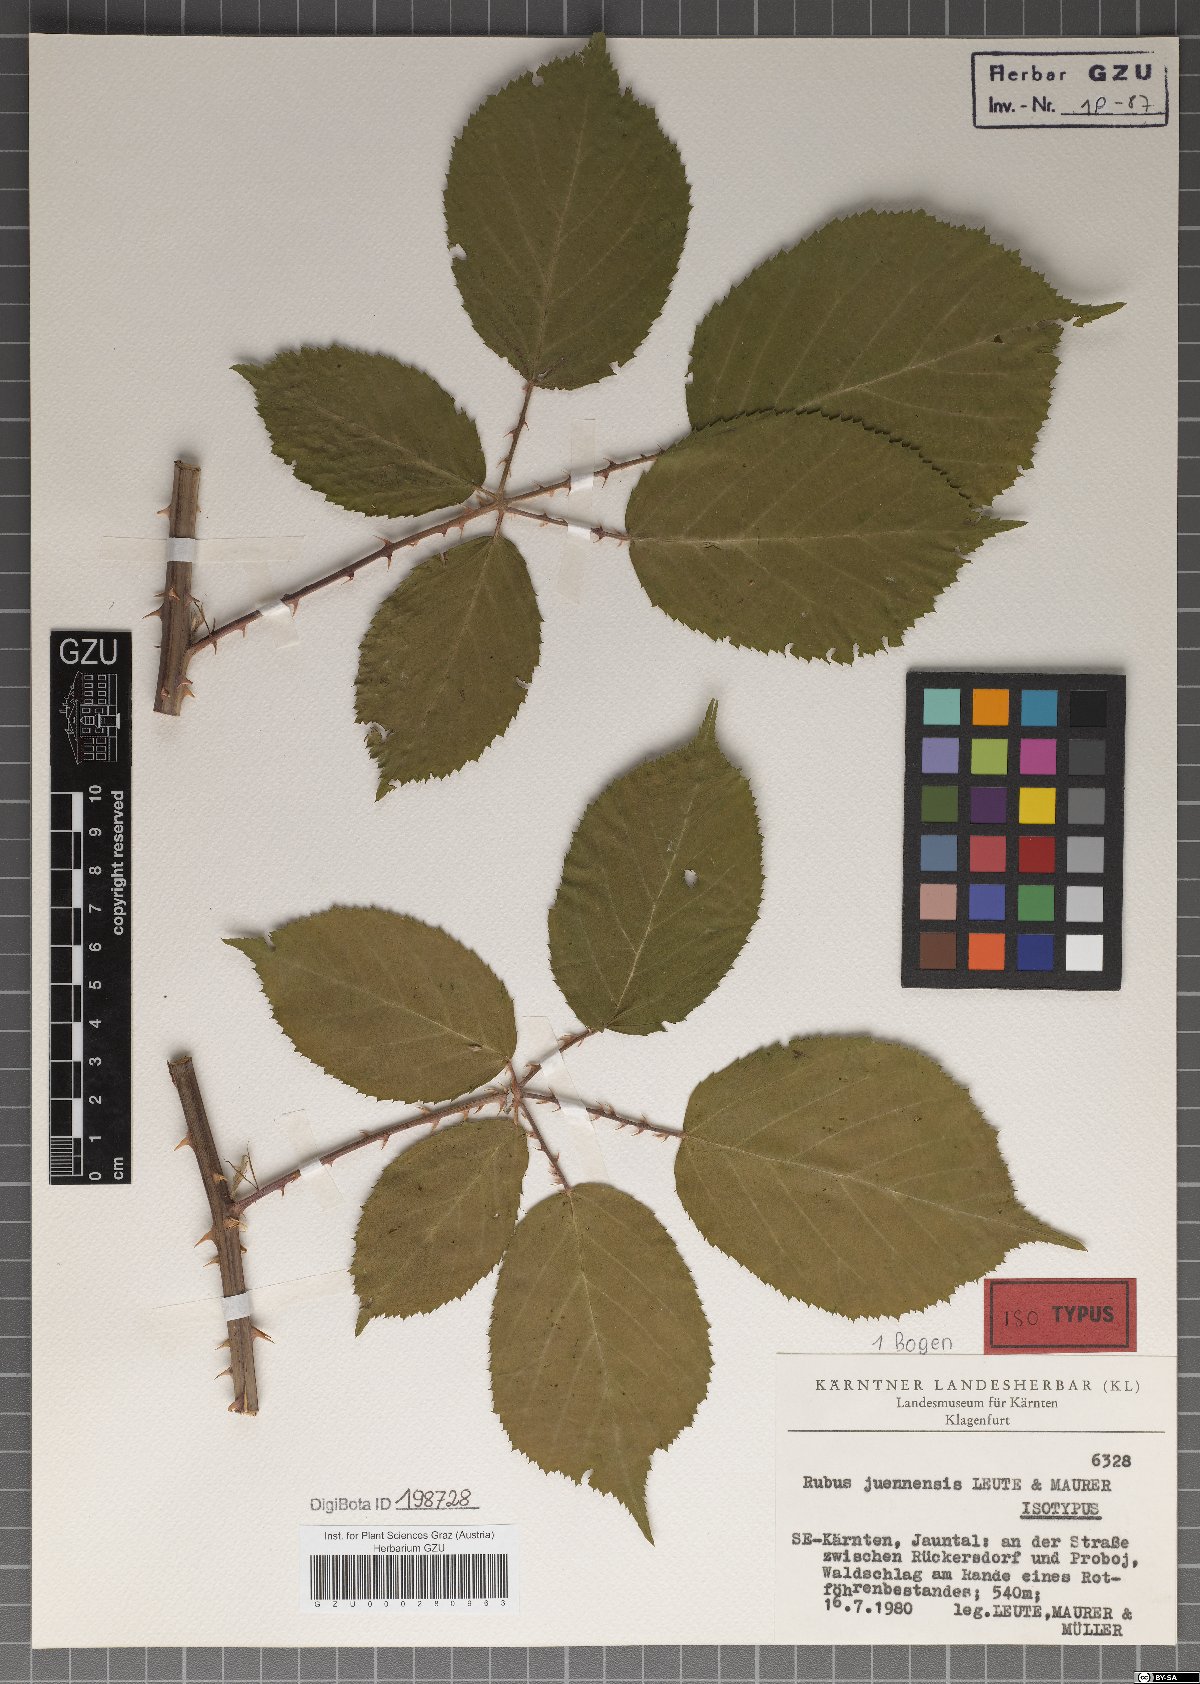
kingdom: Plantae
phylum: Tracheophyta
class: Magnoliopsida
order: Rosales
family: Rosaceae
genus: Rubus
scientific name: Rubus juennensis
